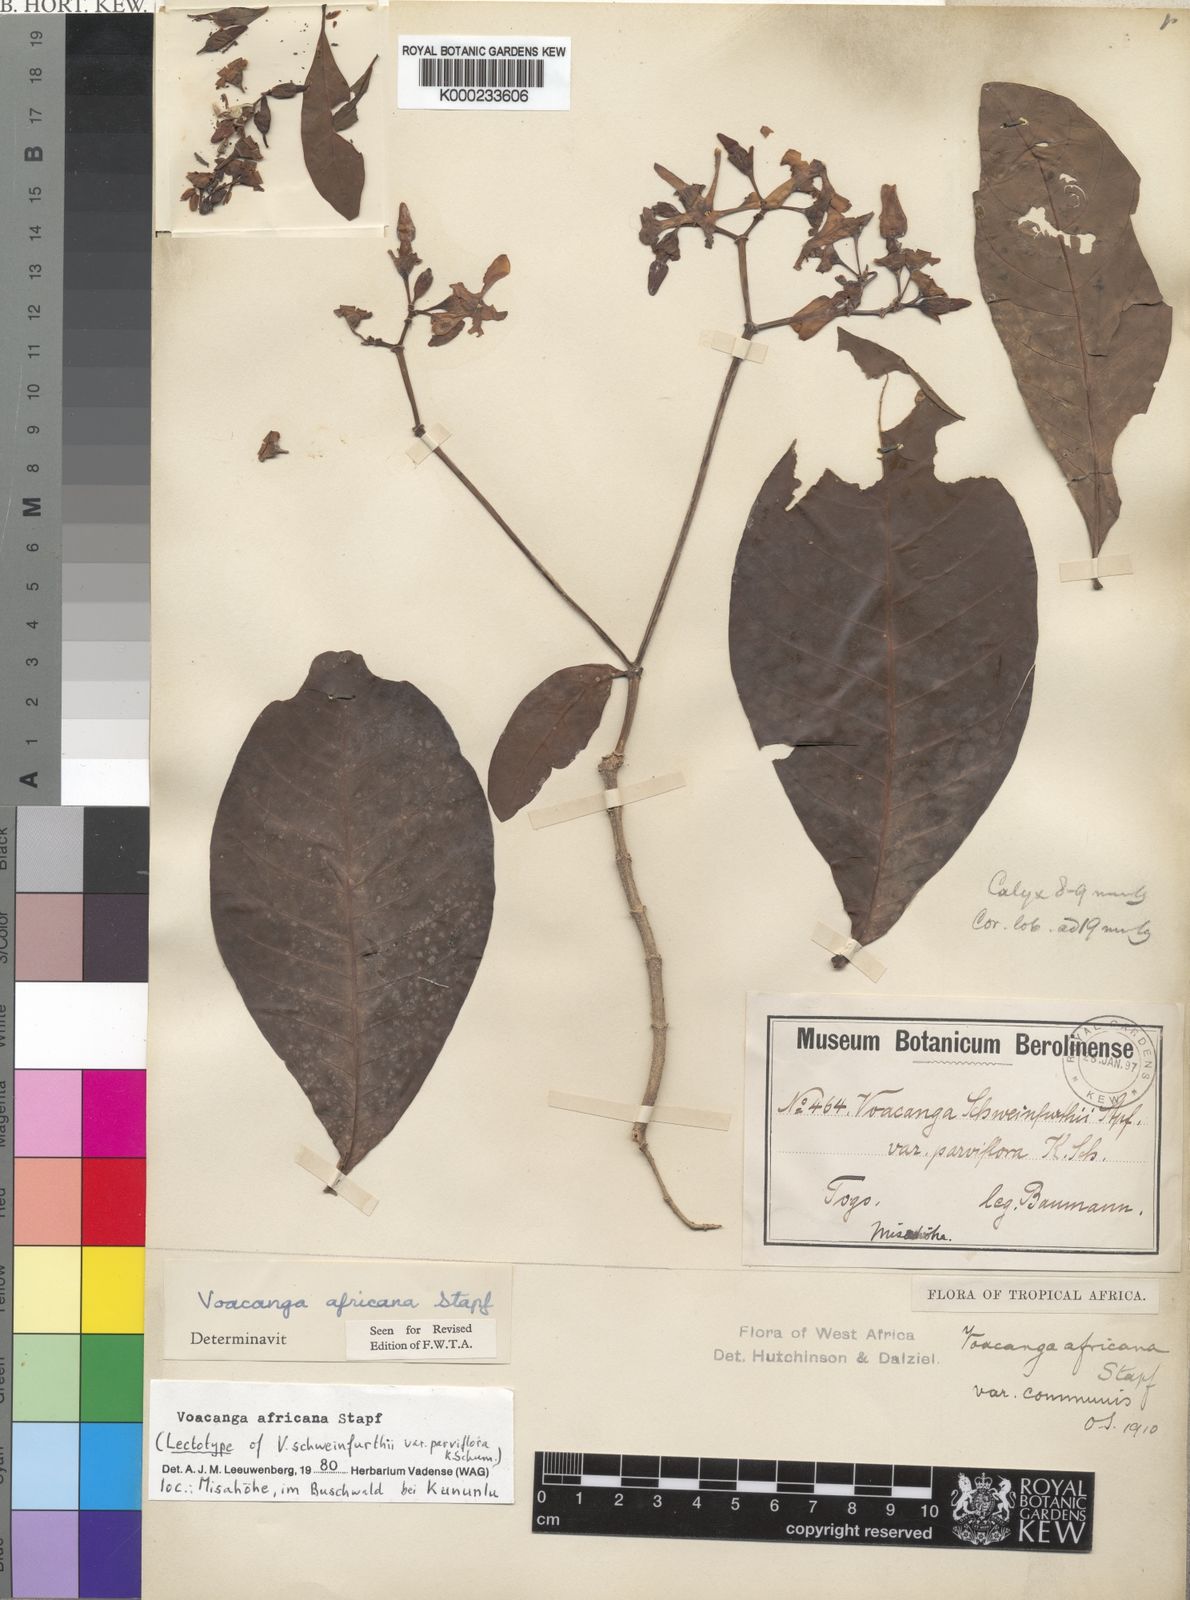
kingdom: Plantae
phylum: Tracheophyta
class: Magnoliopsida
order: Gentianales
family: Apocynaceae
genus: Voacanga
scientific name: Voacanga africana
